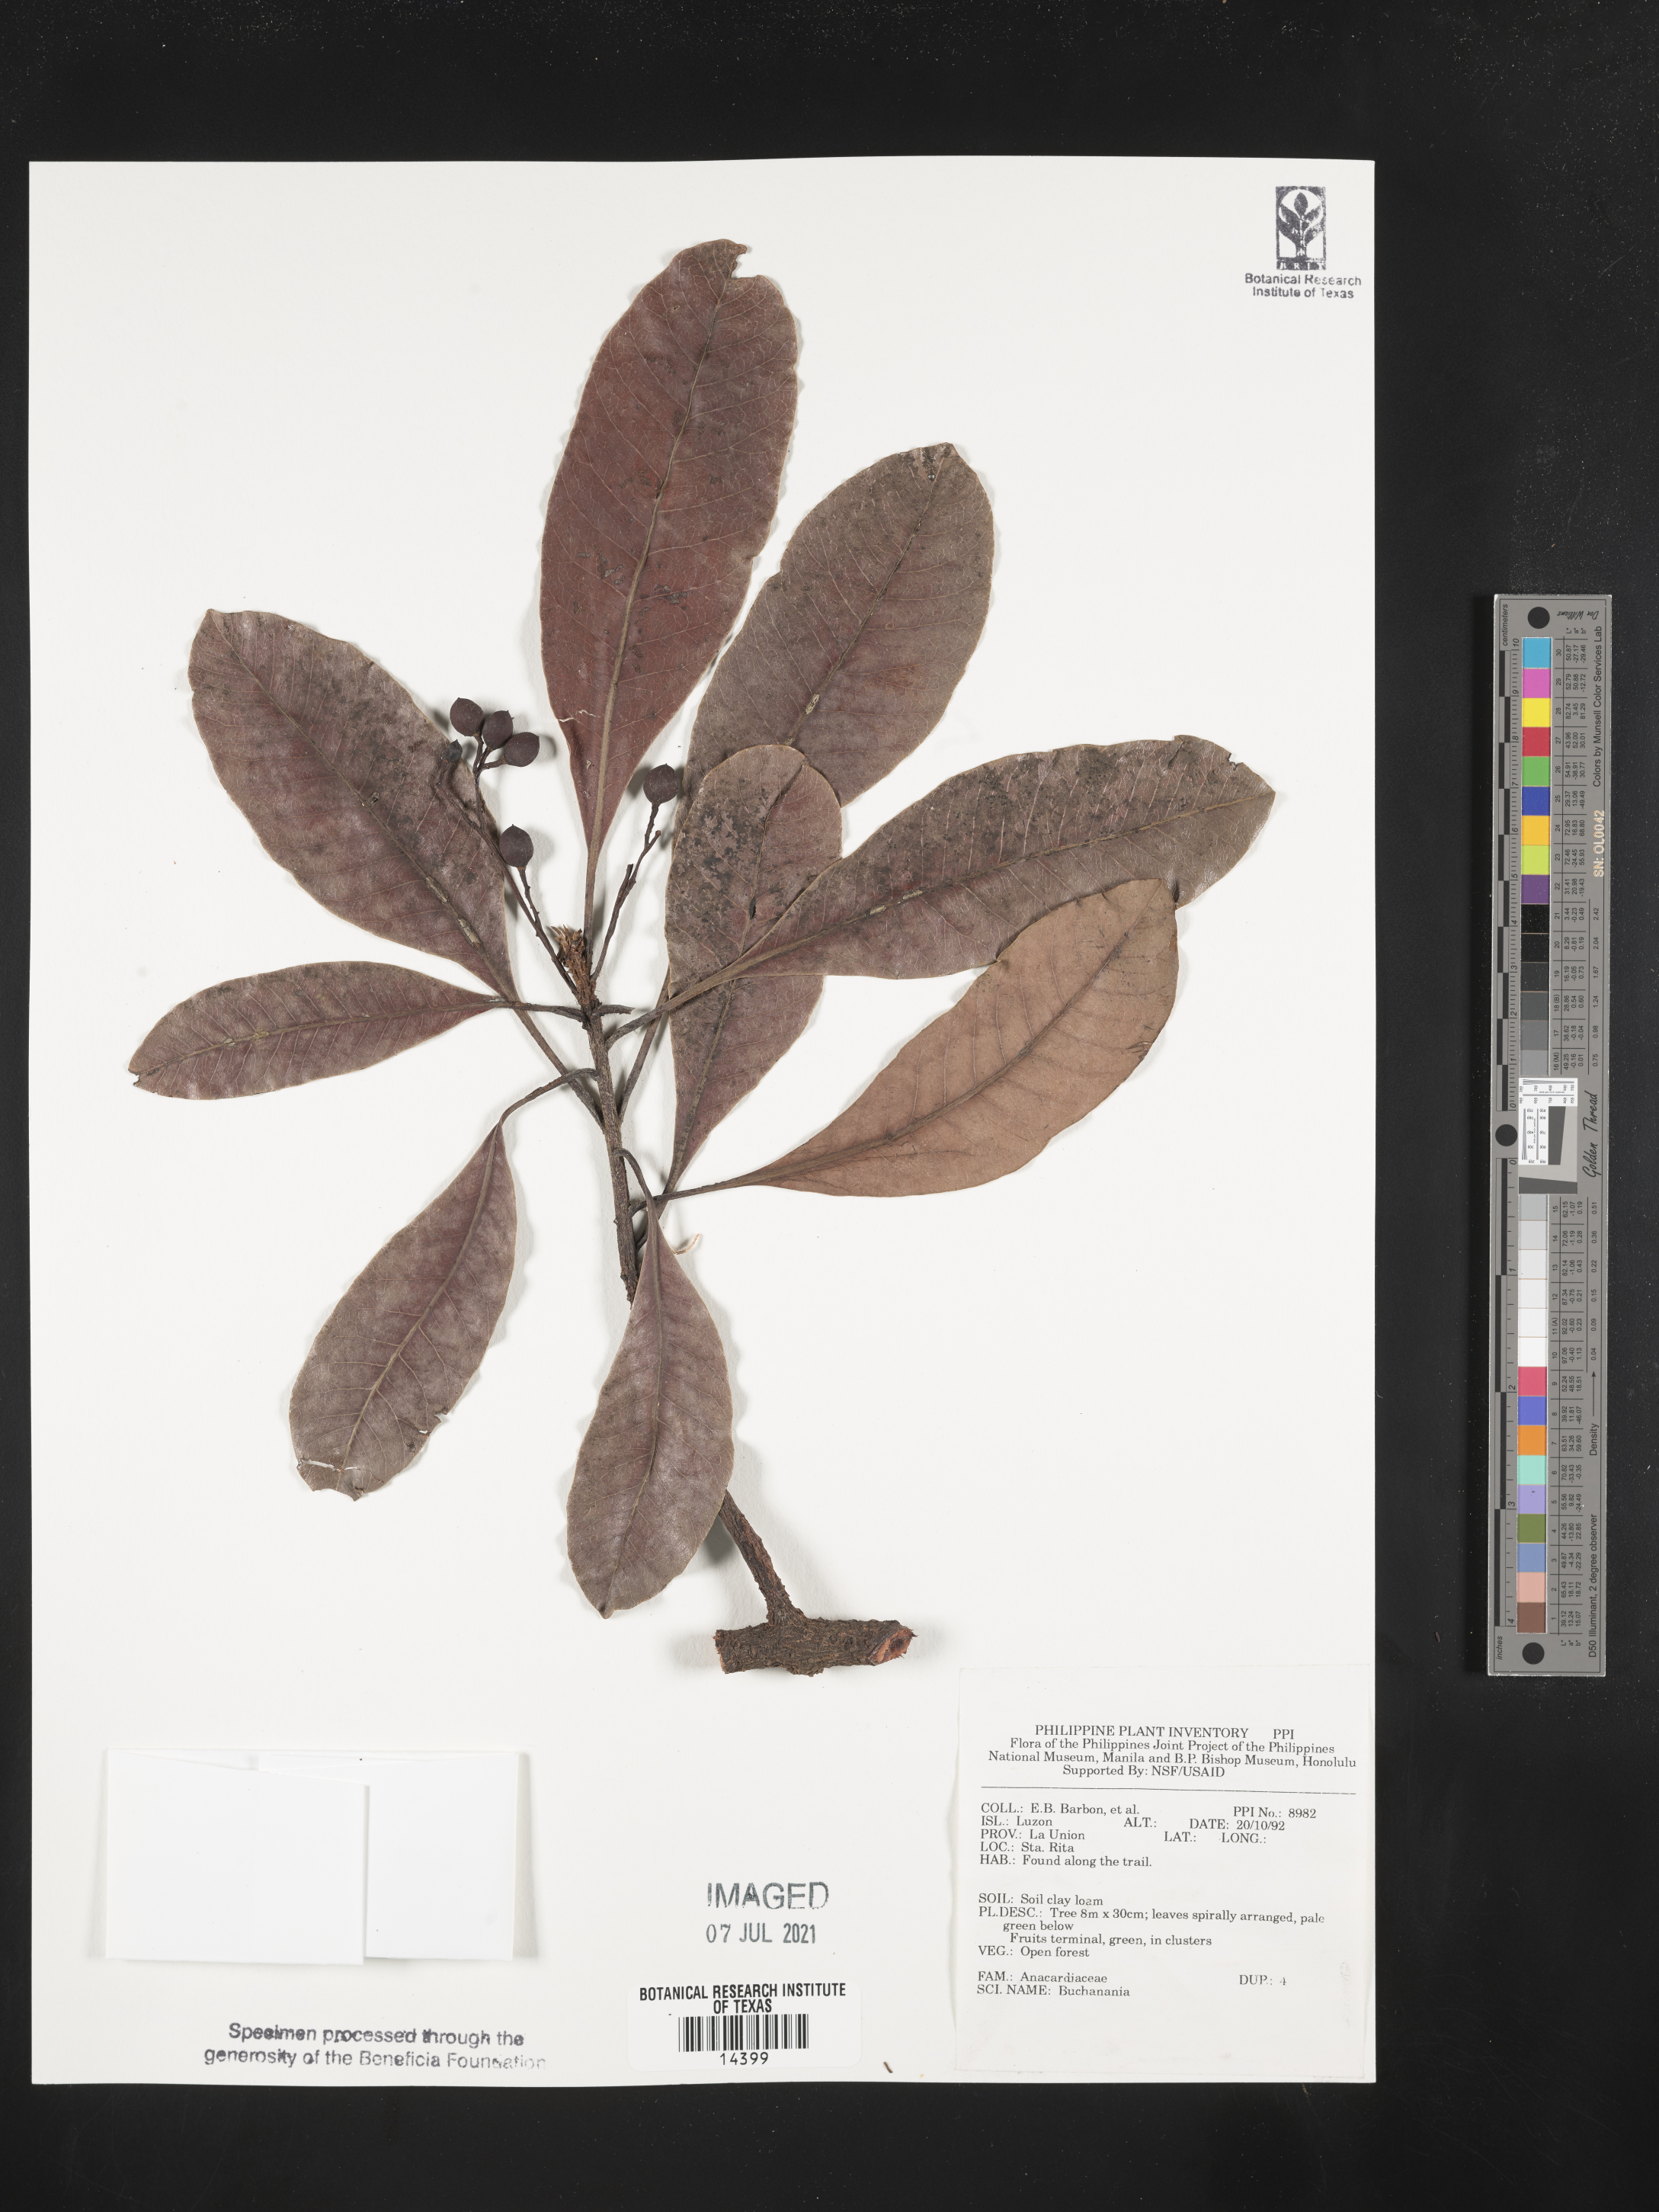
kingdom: Plantae
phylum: Tracheophyta
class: Magnoliopsida
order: Sapindales
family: Anacardiaceae
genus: Buchanania
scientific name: Buchanania
